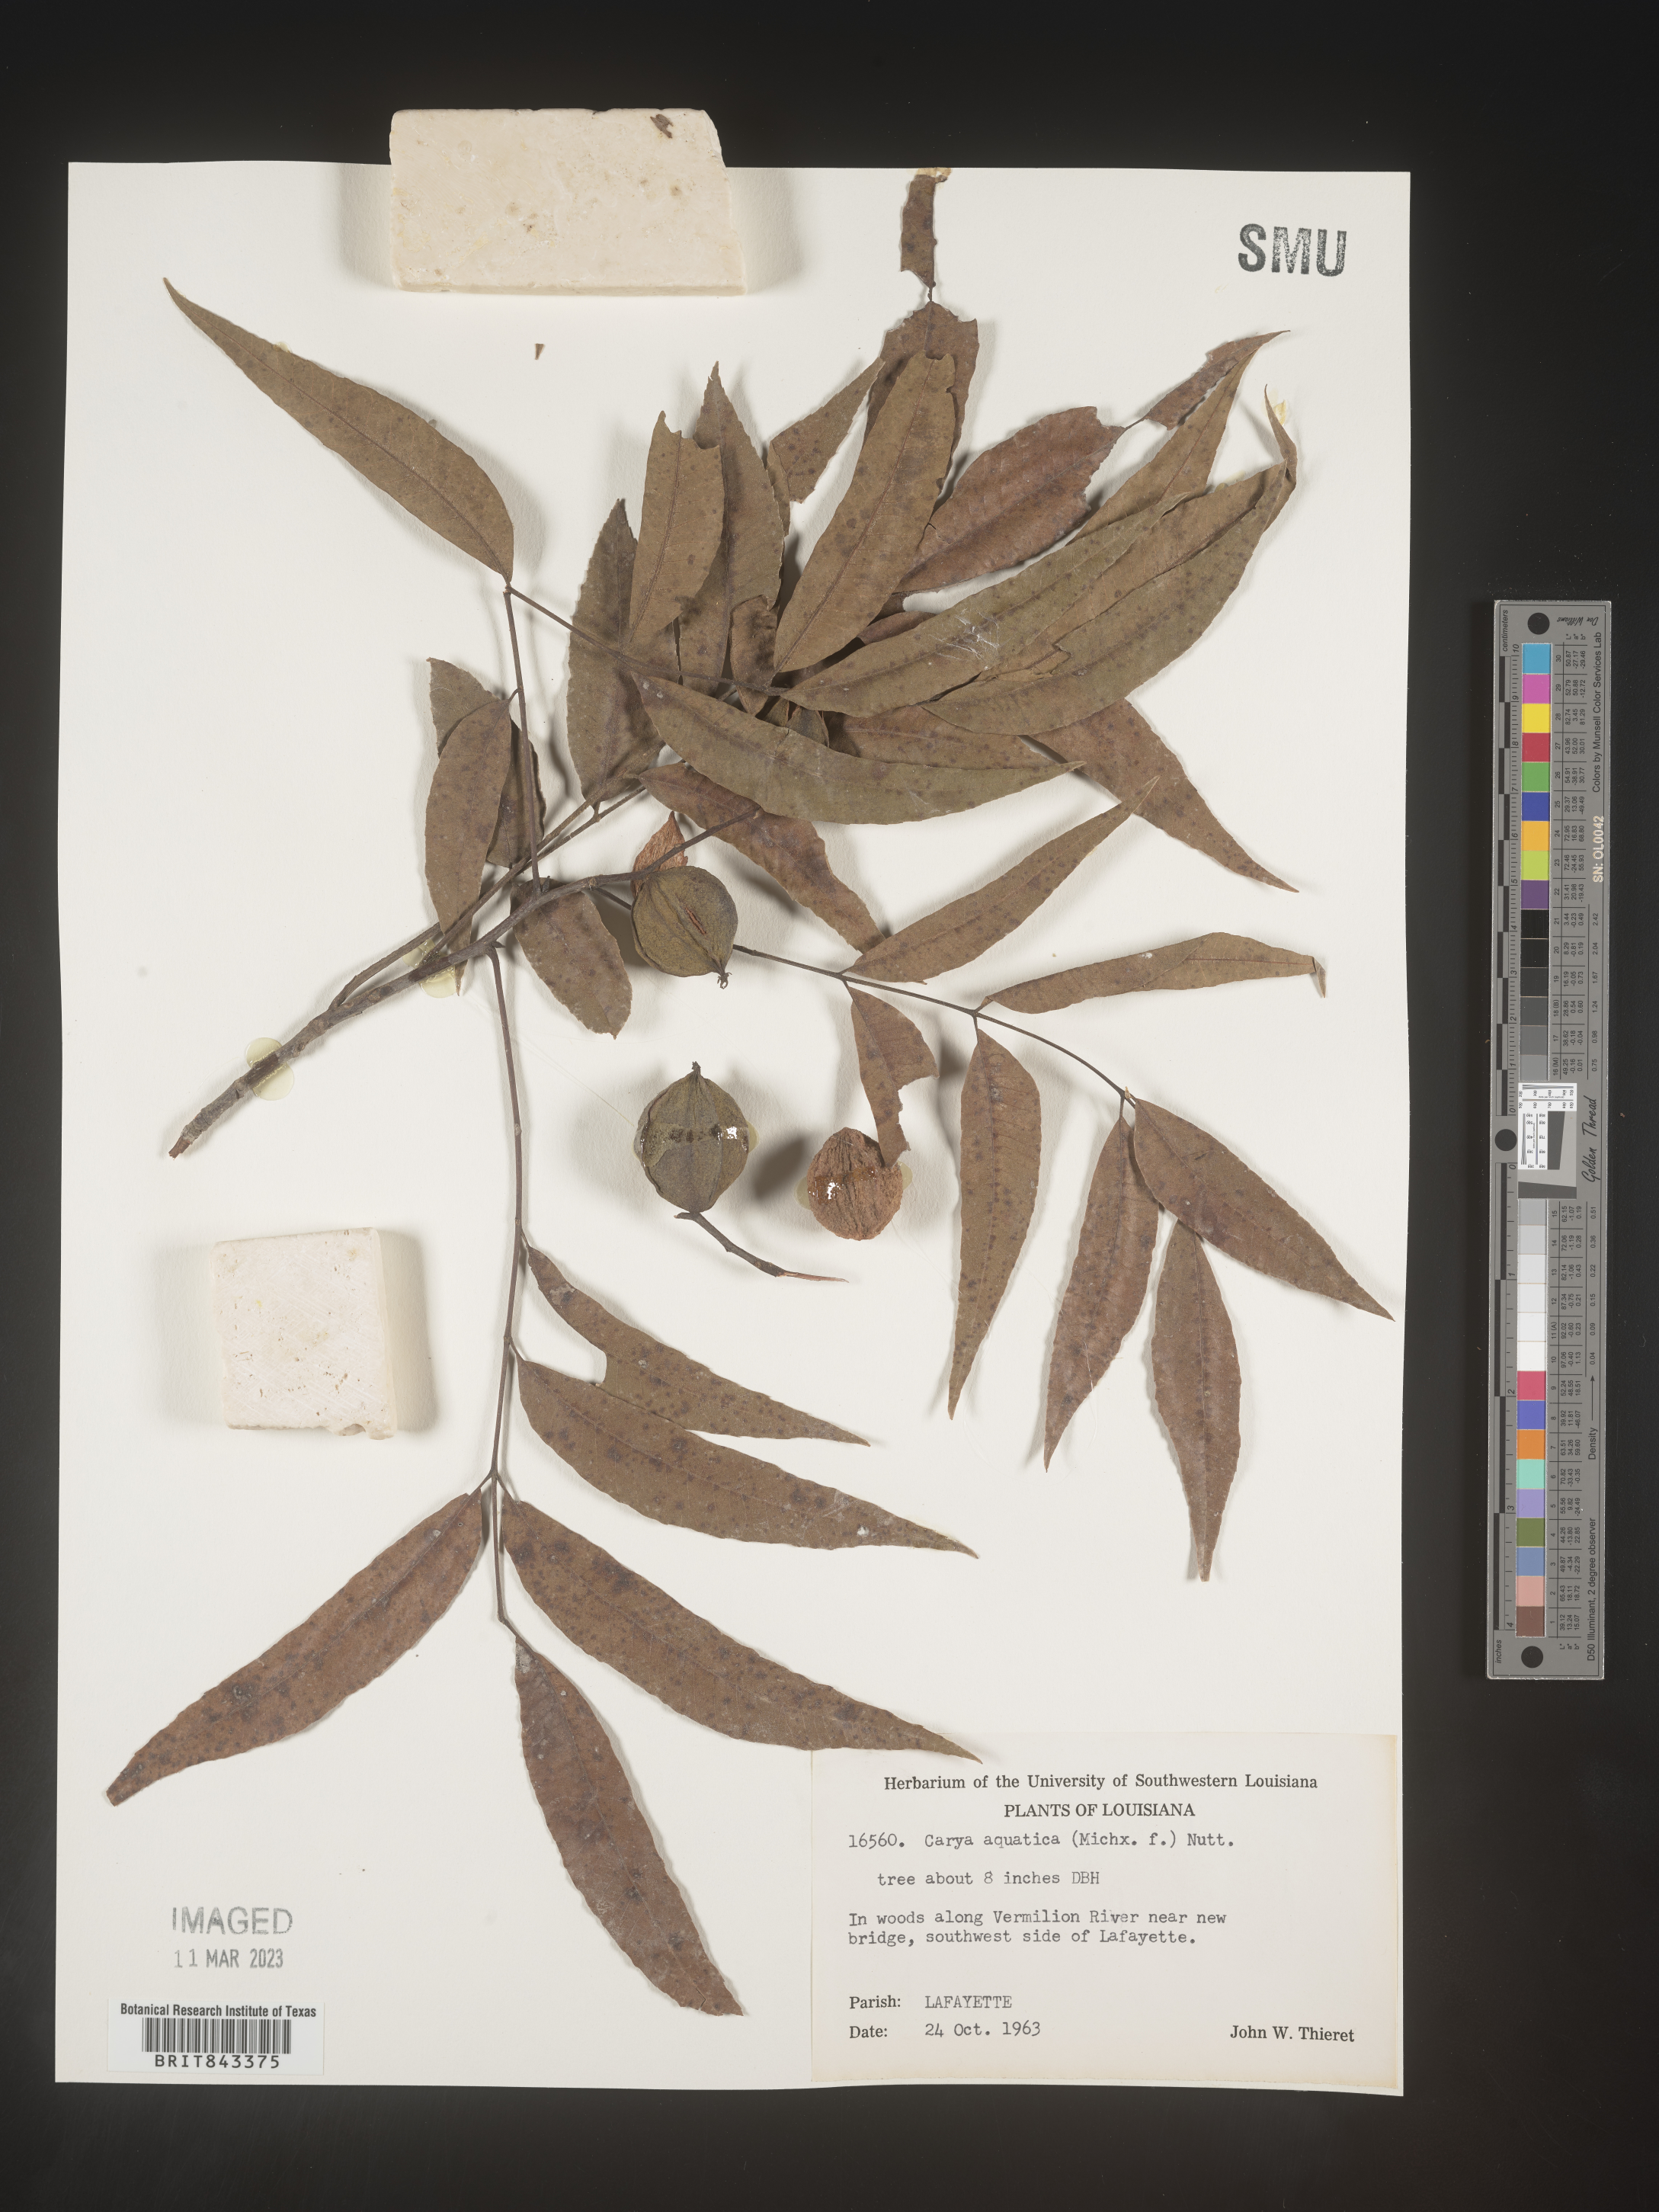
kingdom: Plantae
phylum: Tracheophyta
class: Magnoliopsida
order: Fagales
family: Juglandaceae
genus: Carya
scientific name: Carya aquatica
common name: Water hickory
